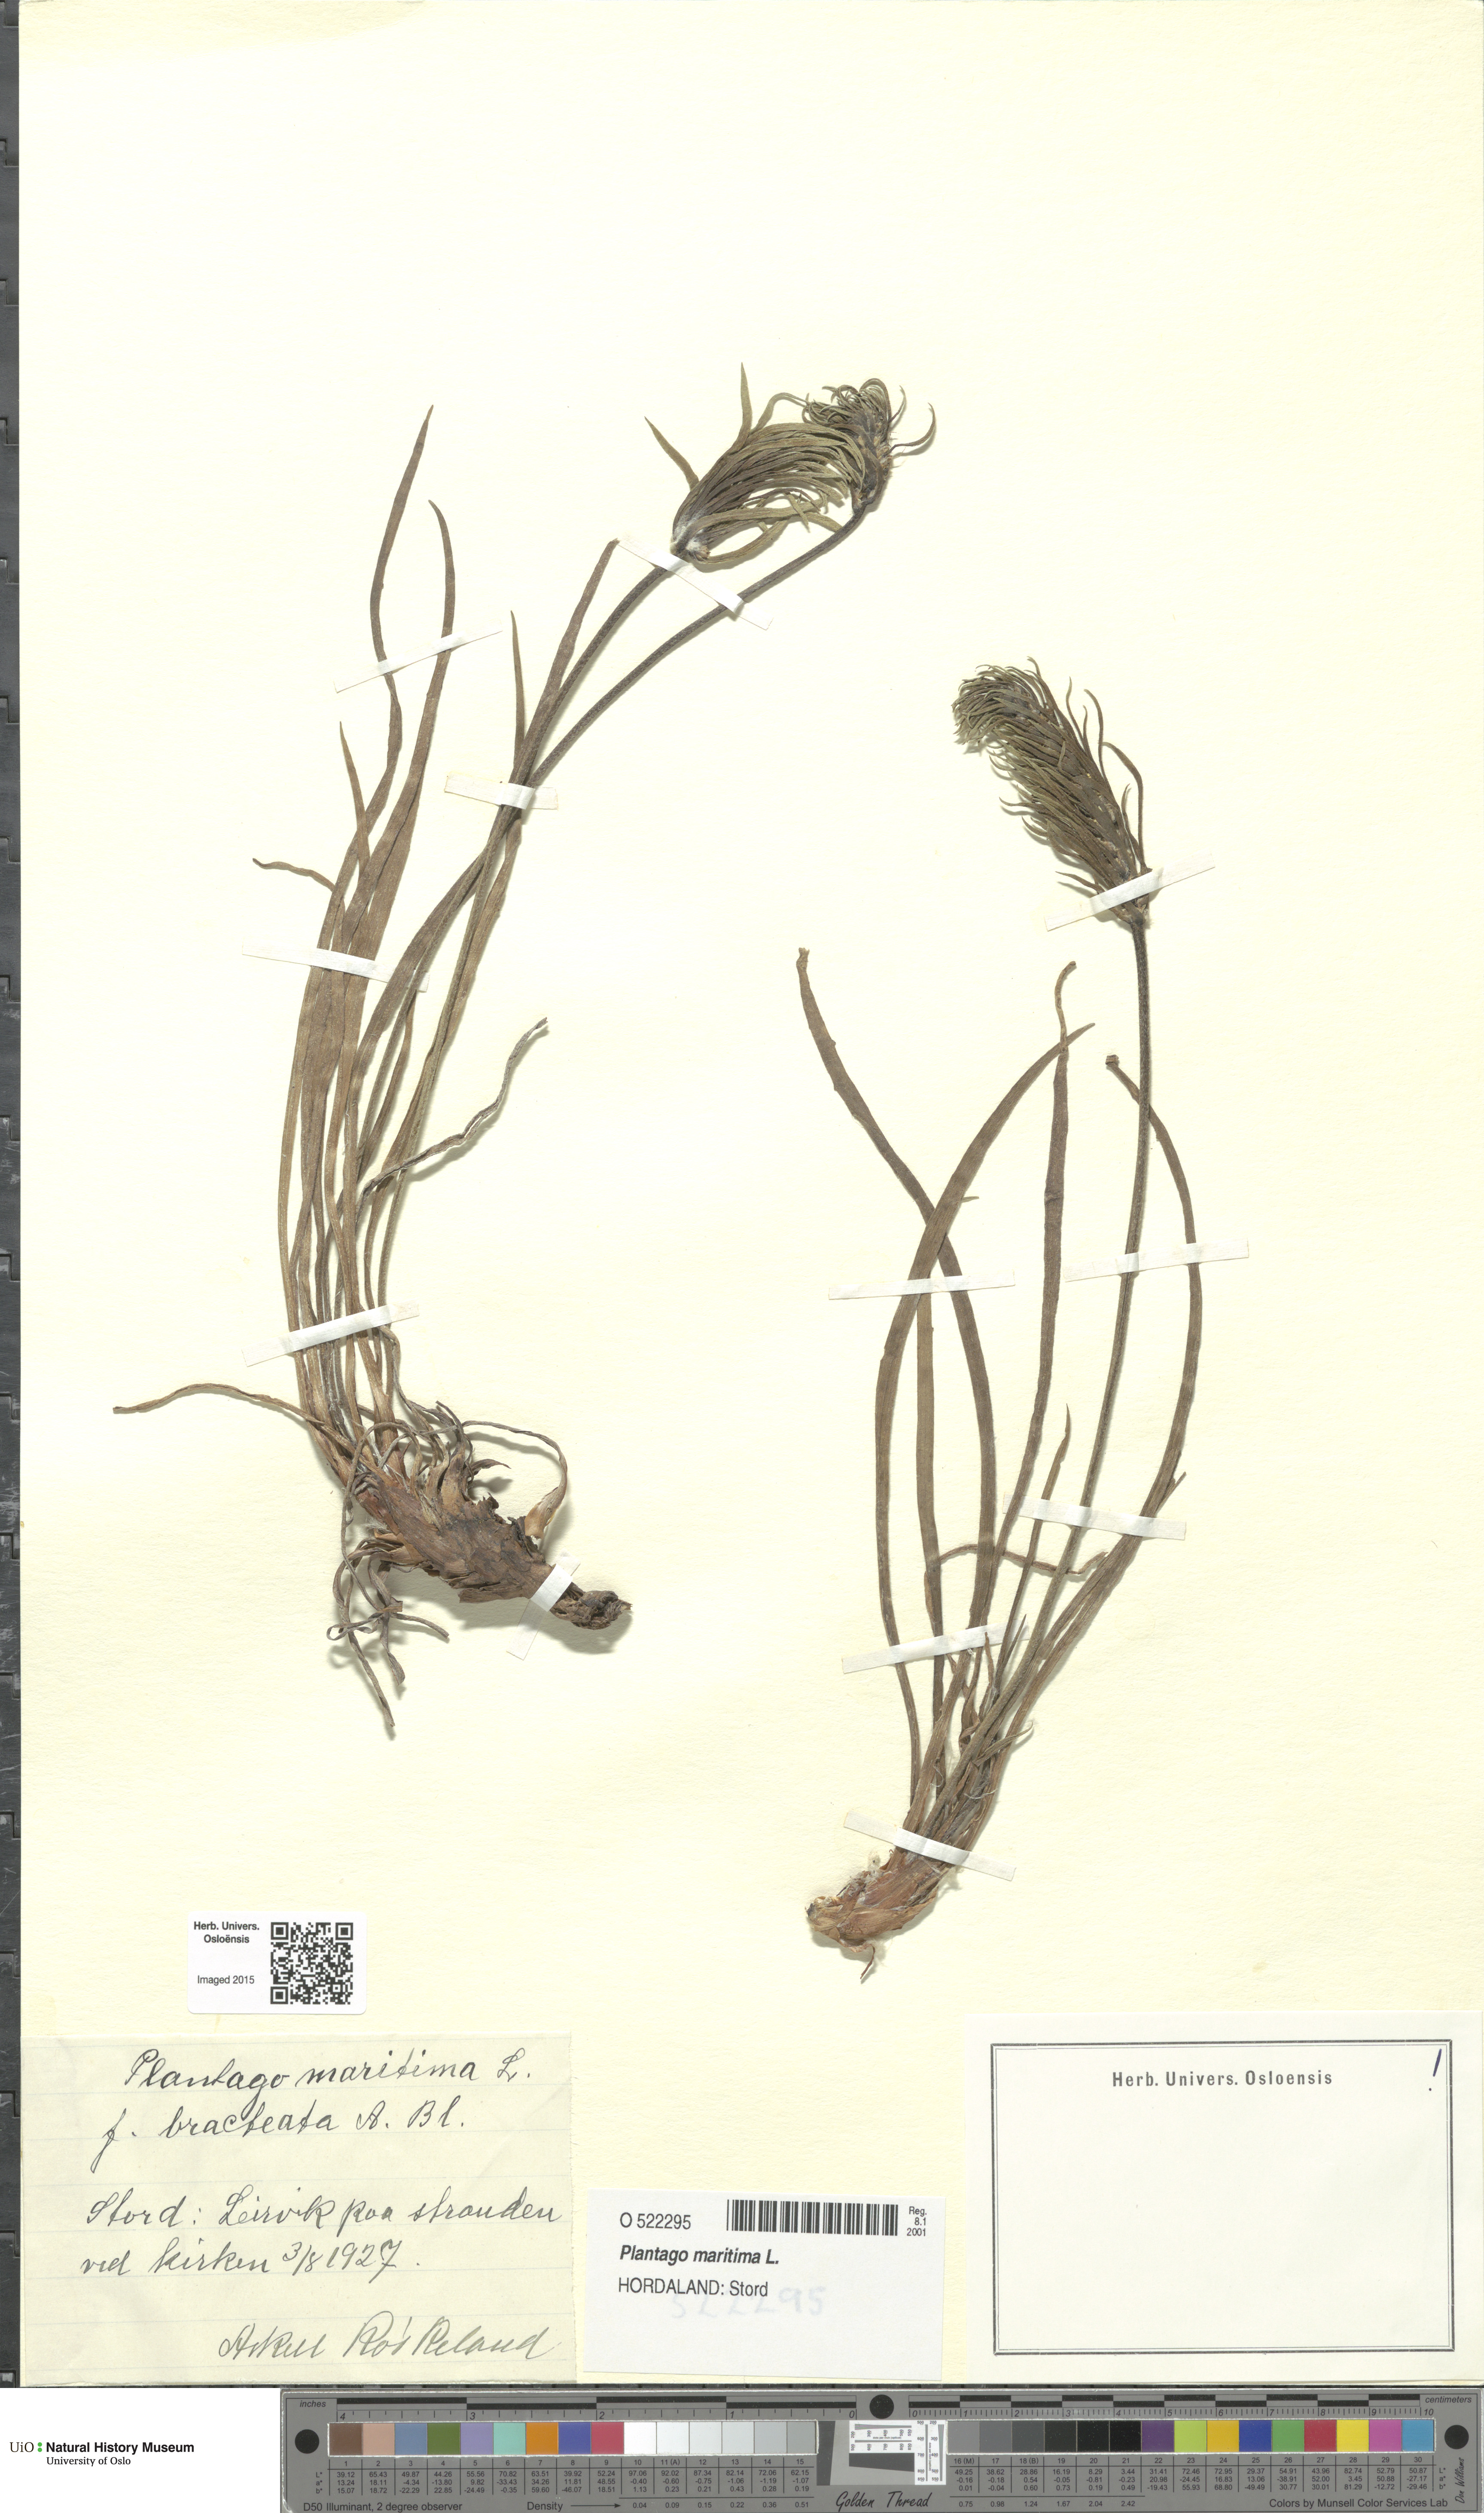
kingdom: Plantae
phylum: Tracheophyta
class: Magnoliopsida
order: Lamiales
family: Plantaginaceae
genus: Plantago
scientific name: Plantago maritima
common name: Sea plantain
